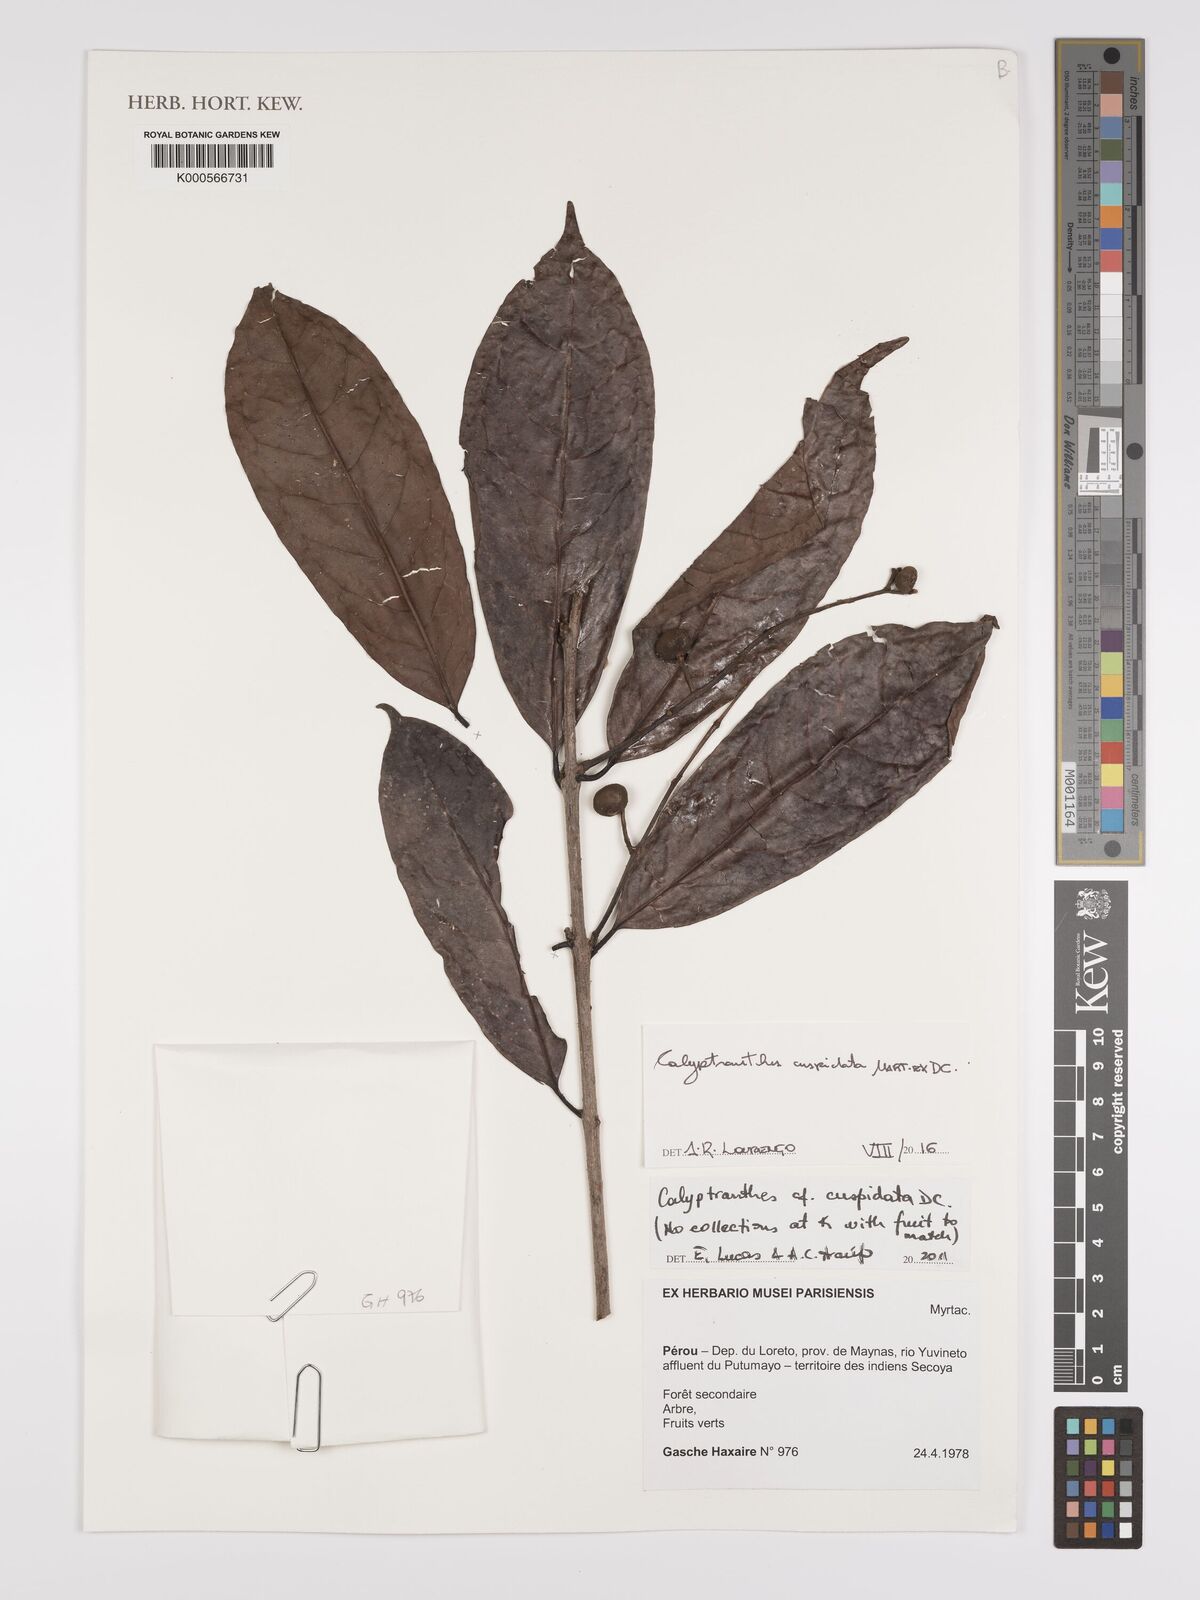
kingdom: Plantae
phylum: Tracheophyta
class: Magnoliopsida
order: Myrtales
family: Myrtaceae
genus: Myrcia
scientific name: Myrcia cuspidata
